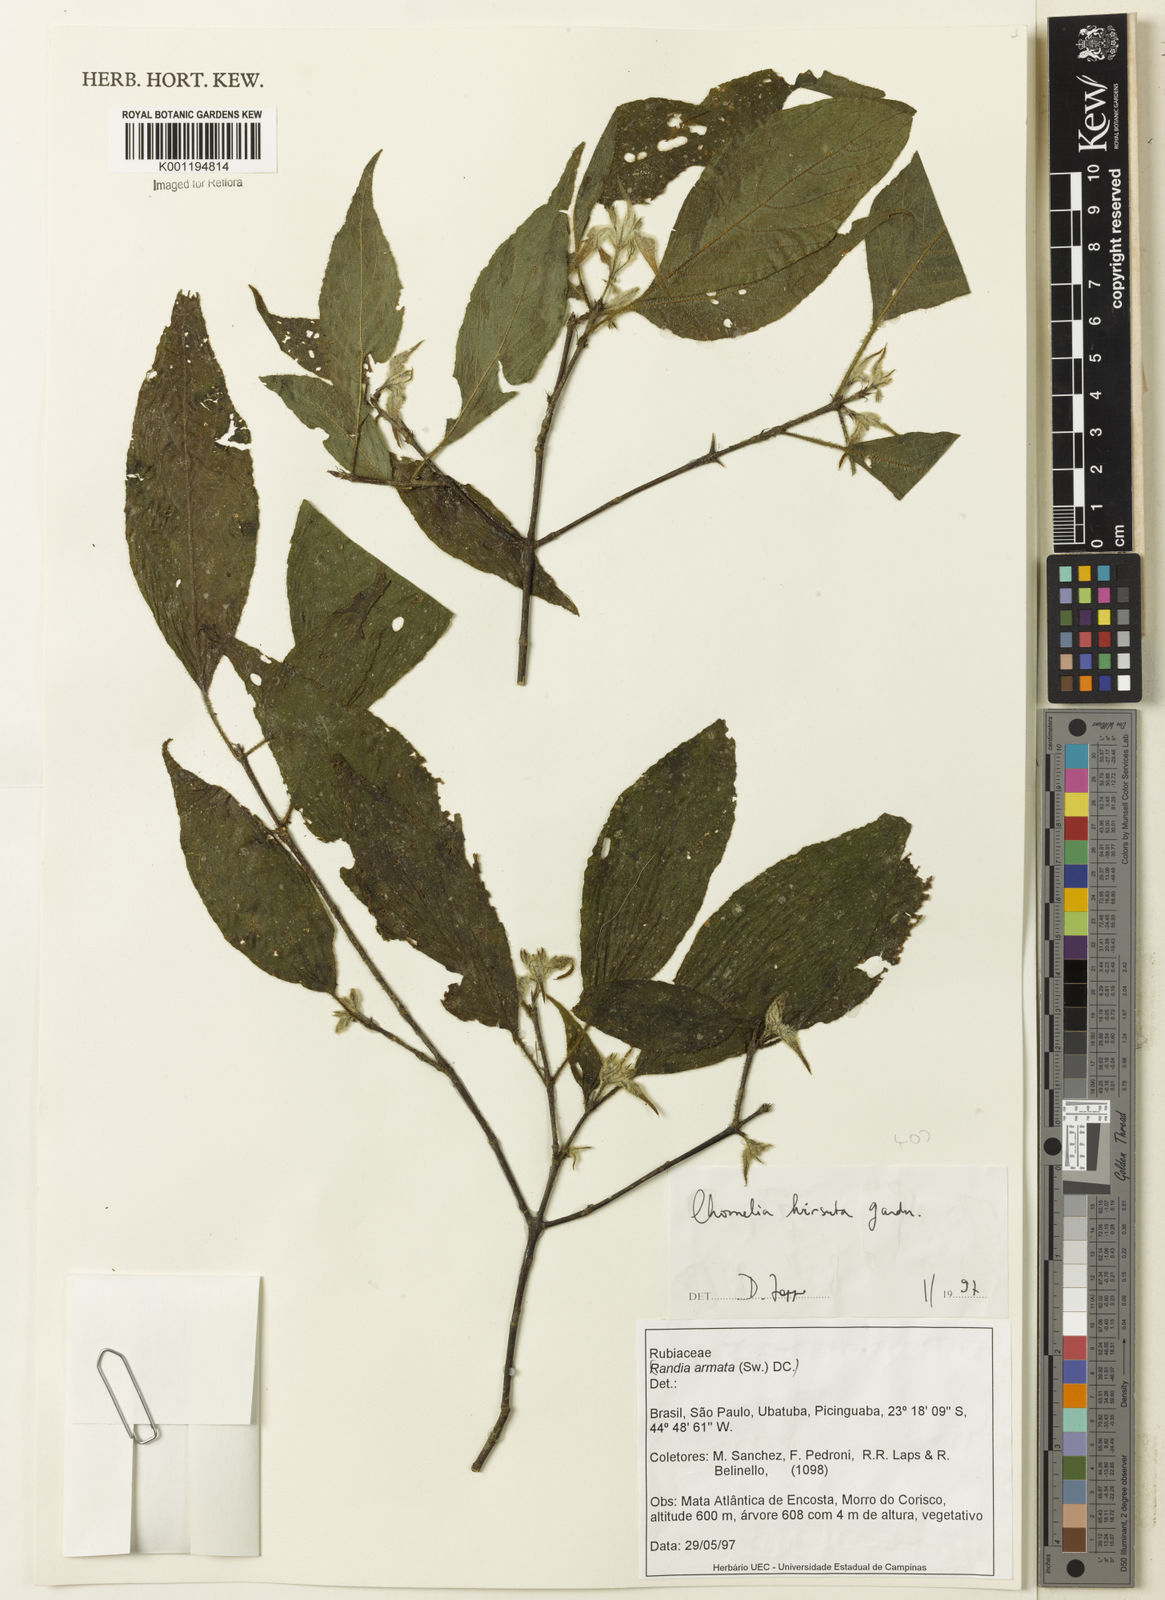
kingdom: Plantae
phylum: Tracheophyta
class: Magnoliopsida
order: Gentianales
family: Rubiaceae
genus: Chomelia
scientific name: Chomelia hirsuta
